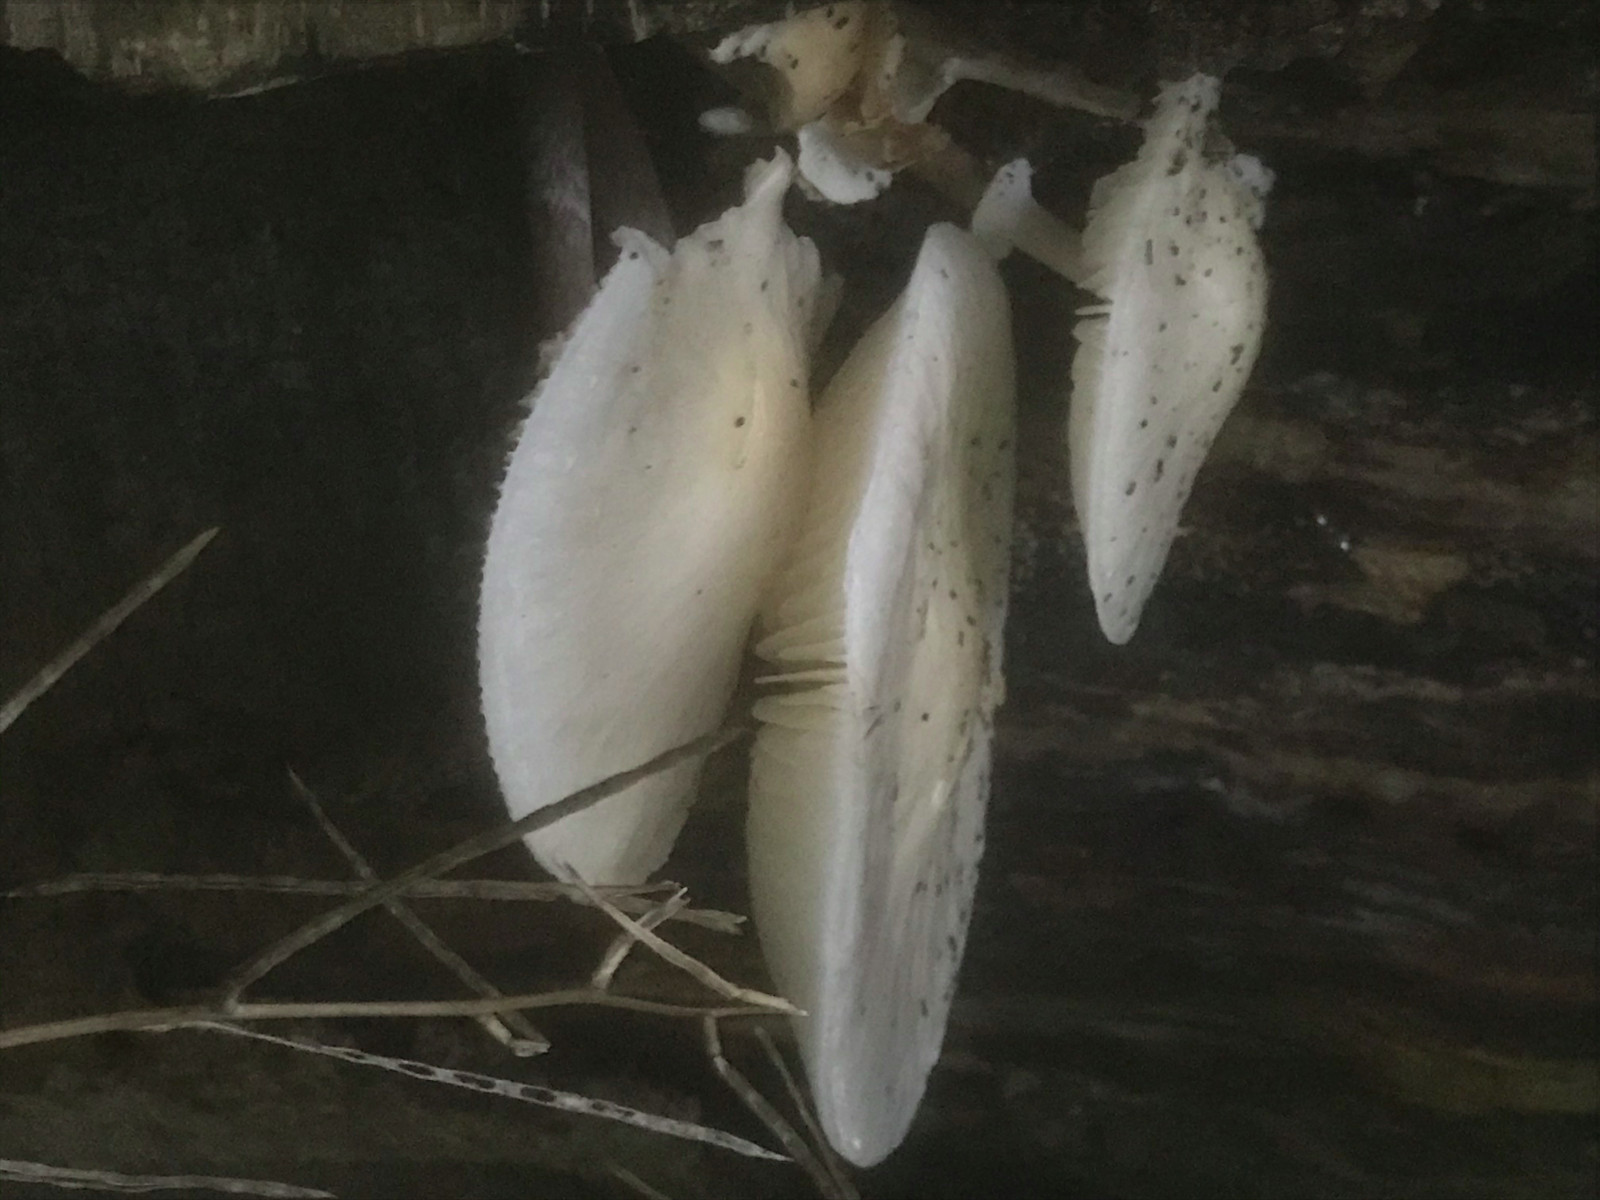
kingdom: Fungi
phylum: Basidiomycota
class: Agaricomycetes
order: Agaricales
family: Physalacriaceae
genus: Mucidula
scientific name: Mucidula mucida
